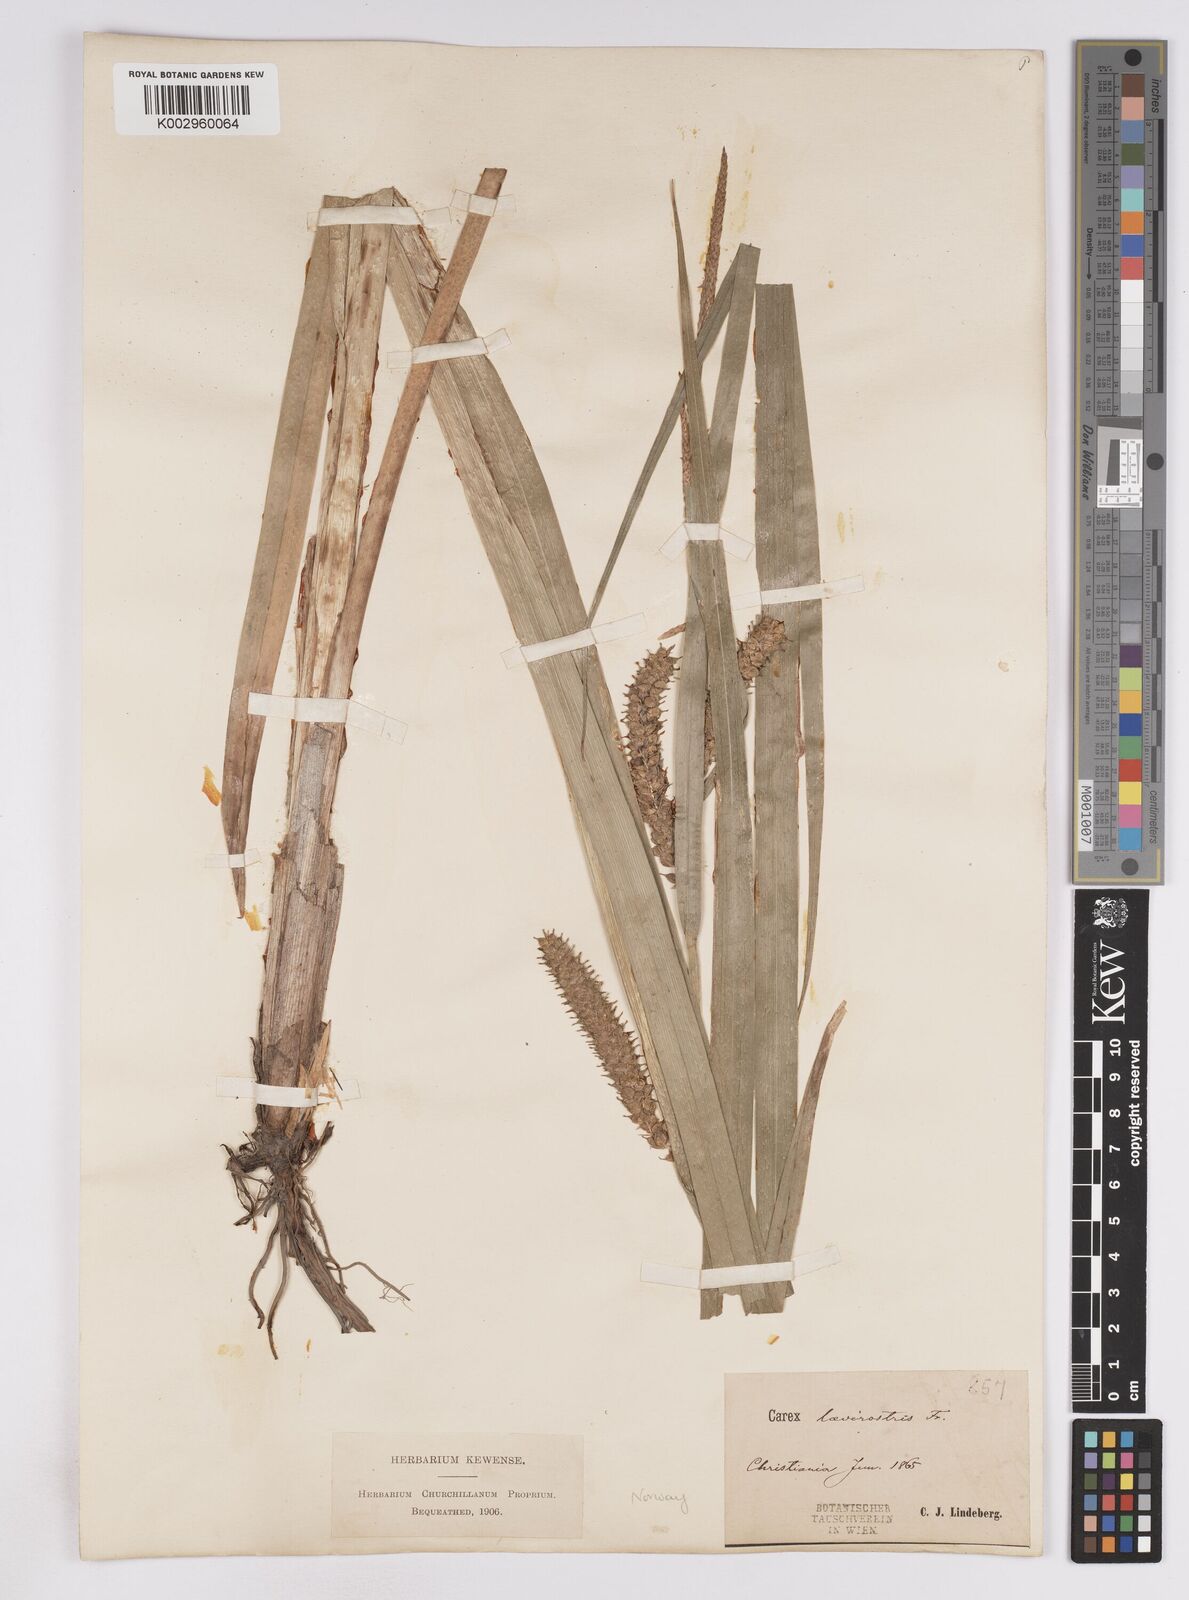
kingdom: Plantae
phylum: Tracheophyta
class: Liliopsida
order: Poales
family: Cyperaceae
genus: Carex
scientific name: Carex utriculata
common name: Beaked sedge
